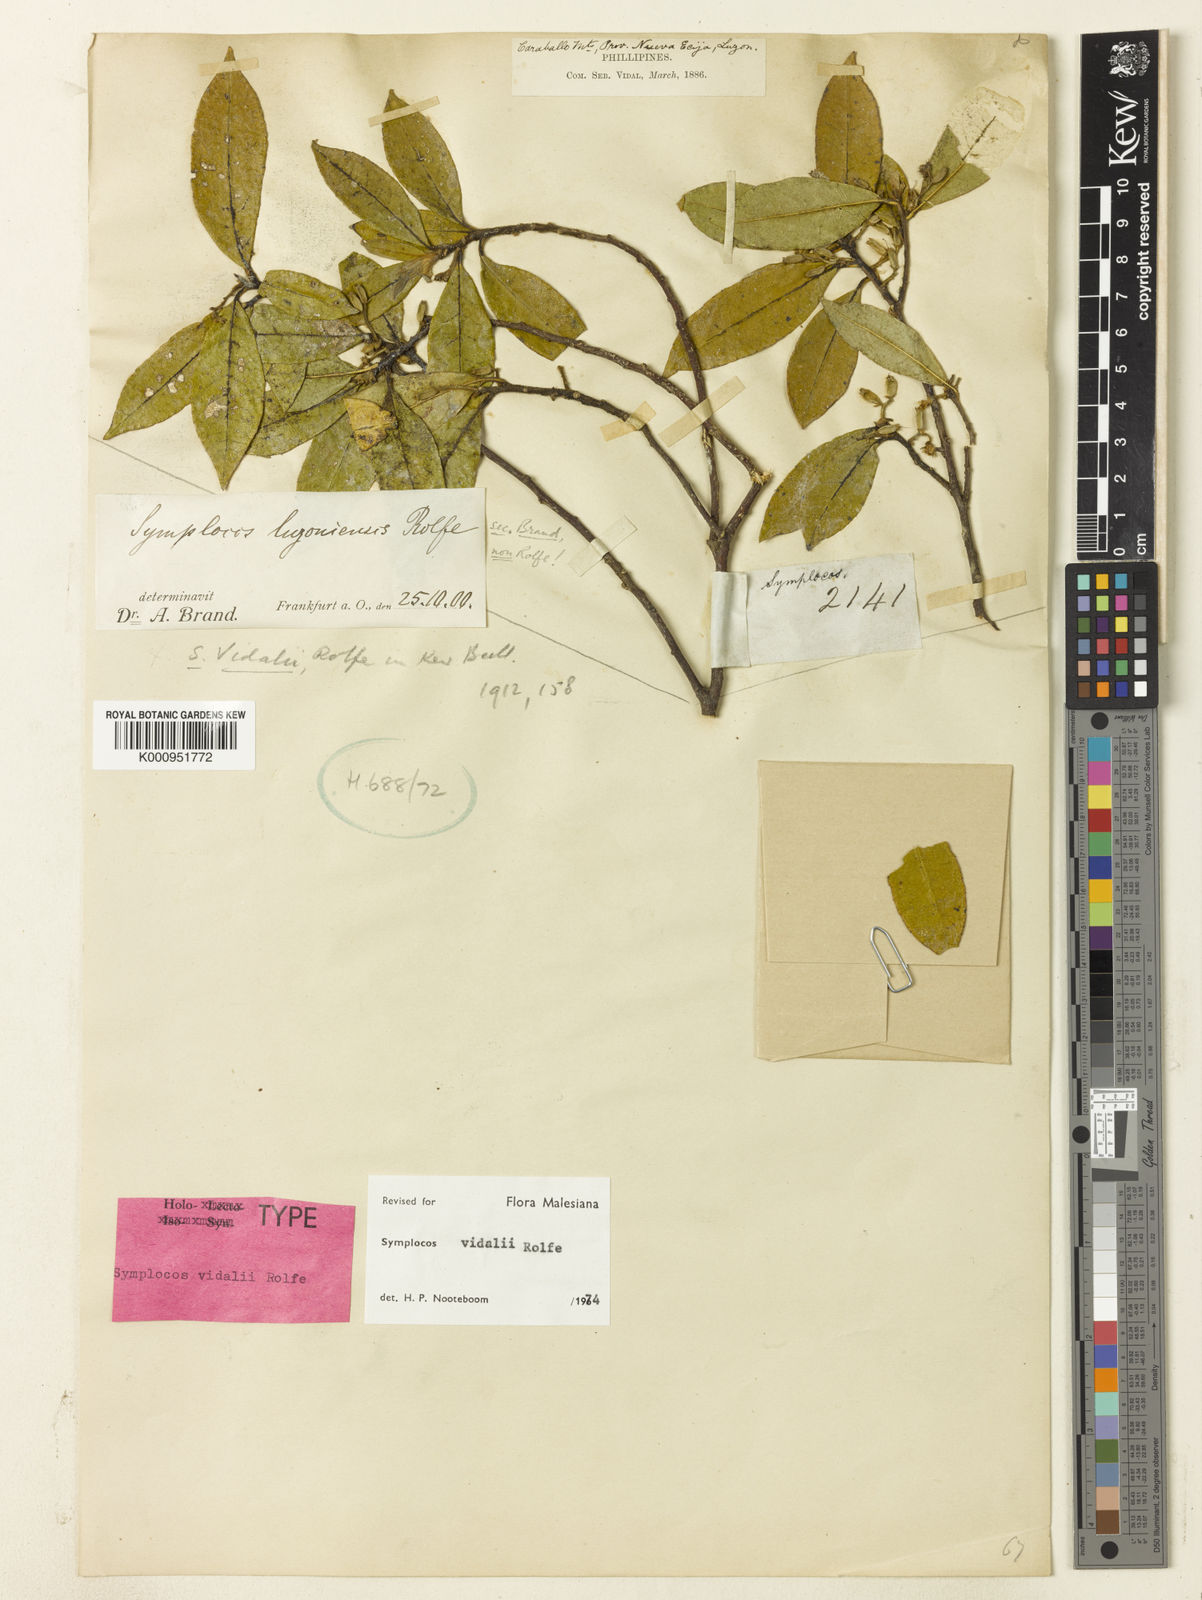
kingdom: Plantae
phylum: Tracheophyta
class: Magnoliopsida
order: Ericales
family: Symplocaceae
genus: Symplocos
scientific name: Symplocos vidalii
